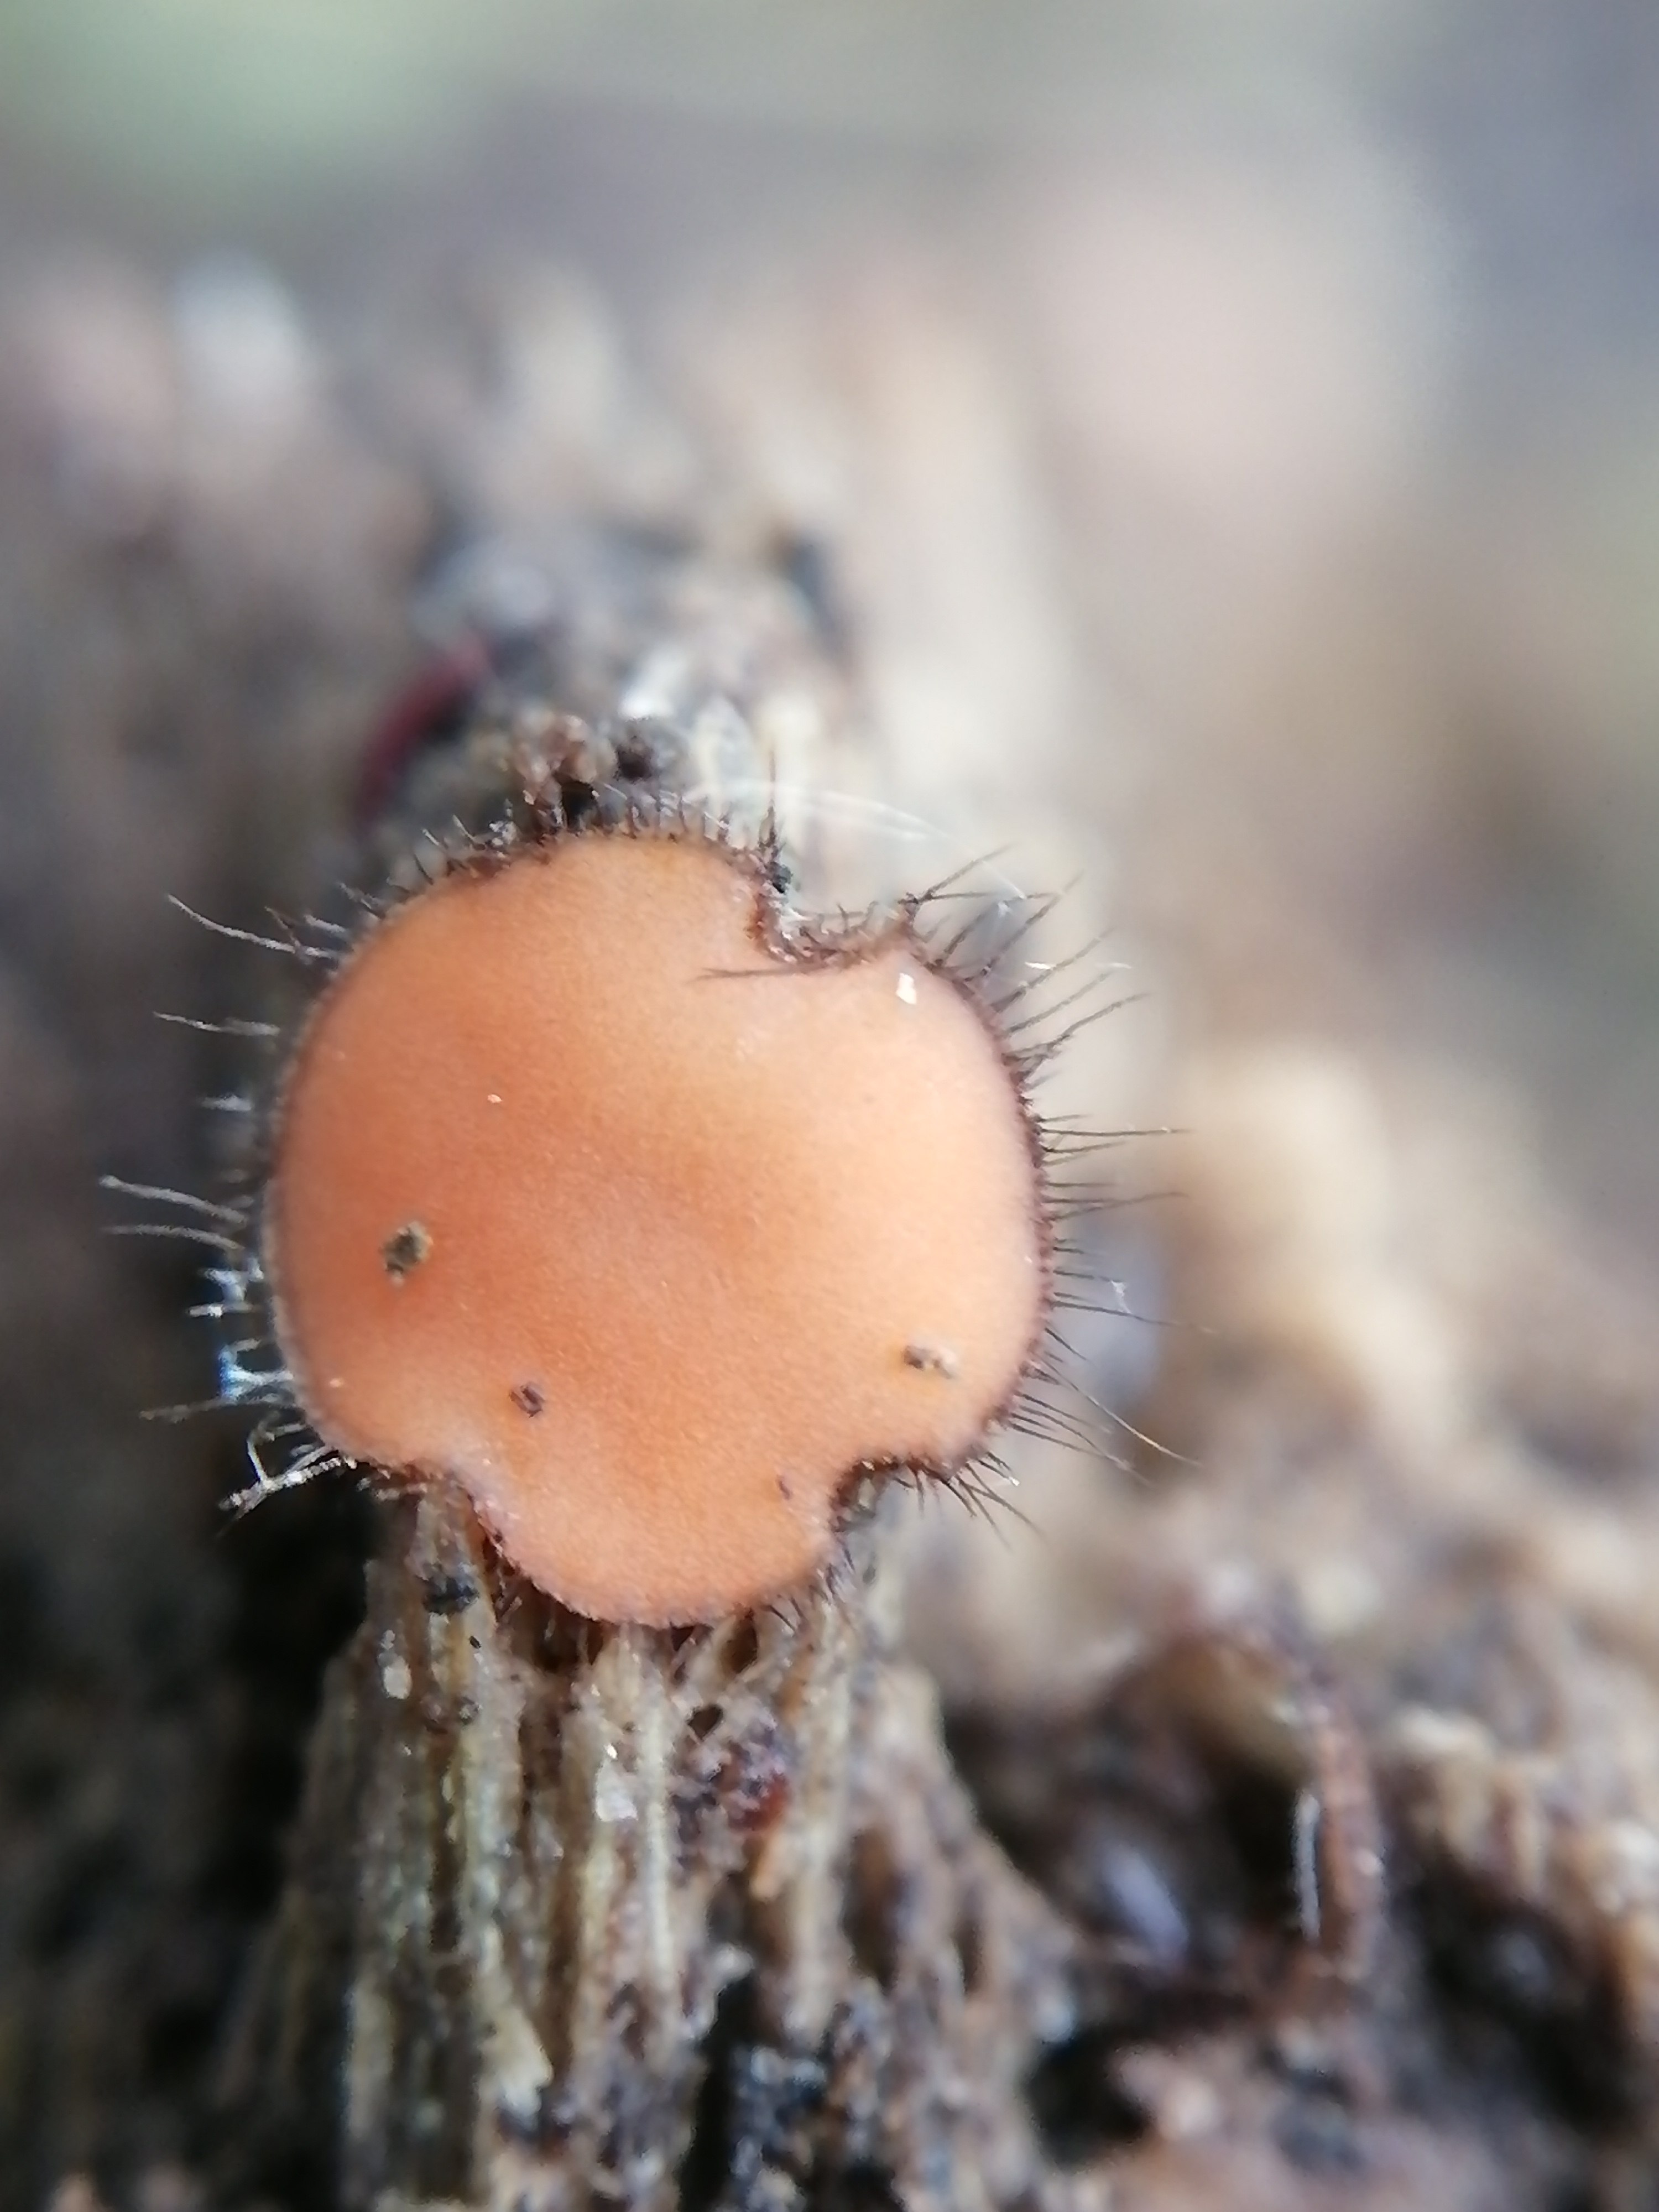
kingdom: Fungi
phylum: Ascomycota
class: Pezizomycetes
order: Pezizales
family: Pyronemataceae
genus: Scutellinia
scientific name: Scutellinia
